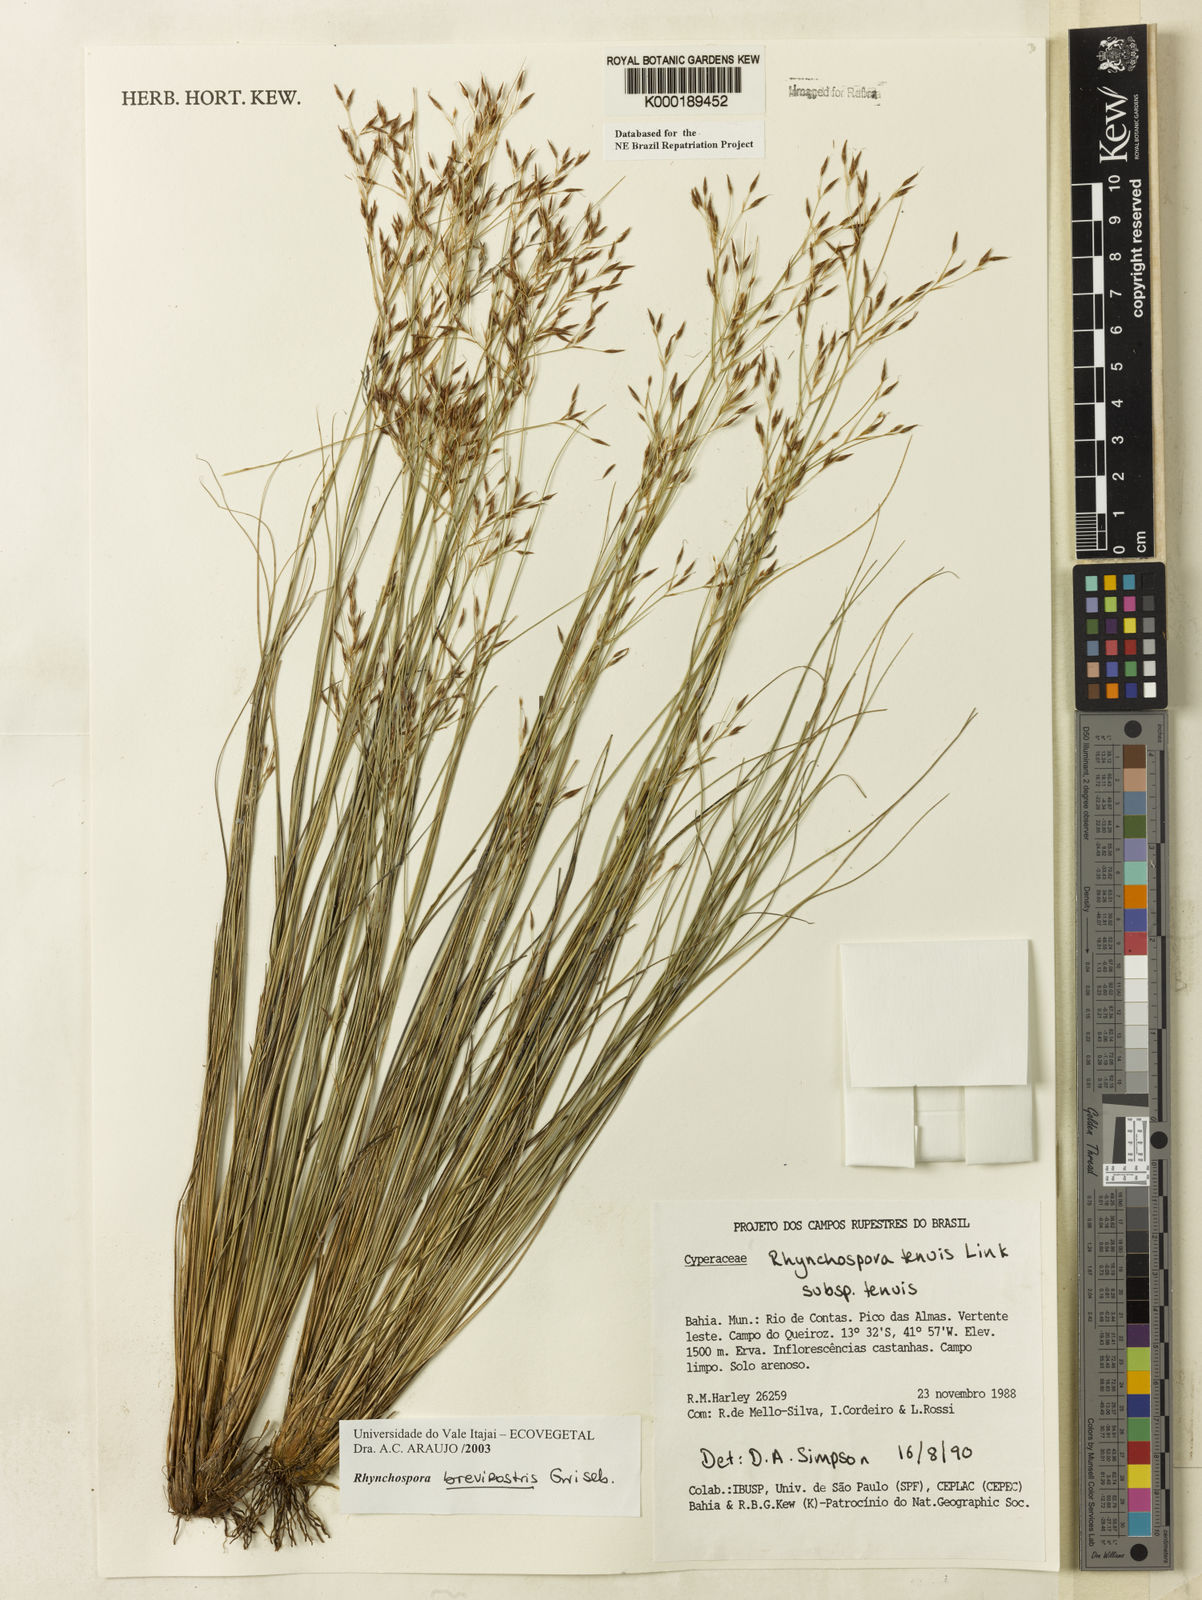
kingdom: Plantae
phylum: Tracheophyta
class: Liliopsida
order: Poales
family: Cyperaceae
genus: Rhynchospora
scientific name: Rhynchospora brevirostris
